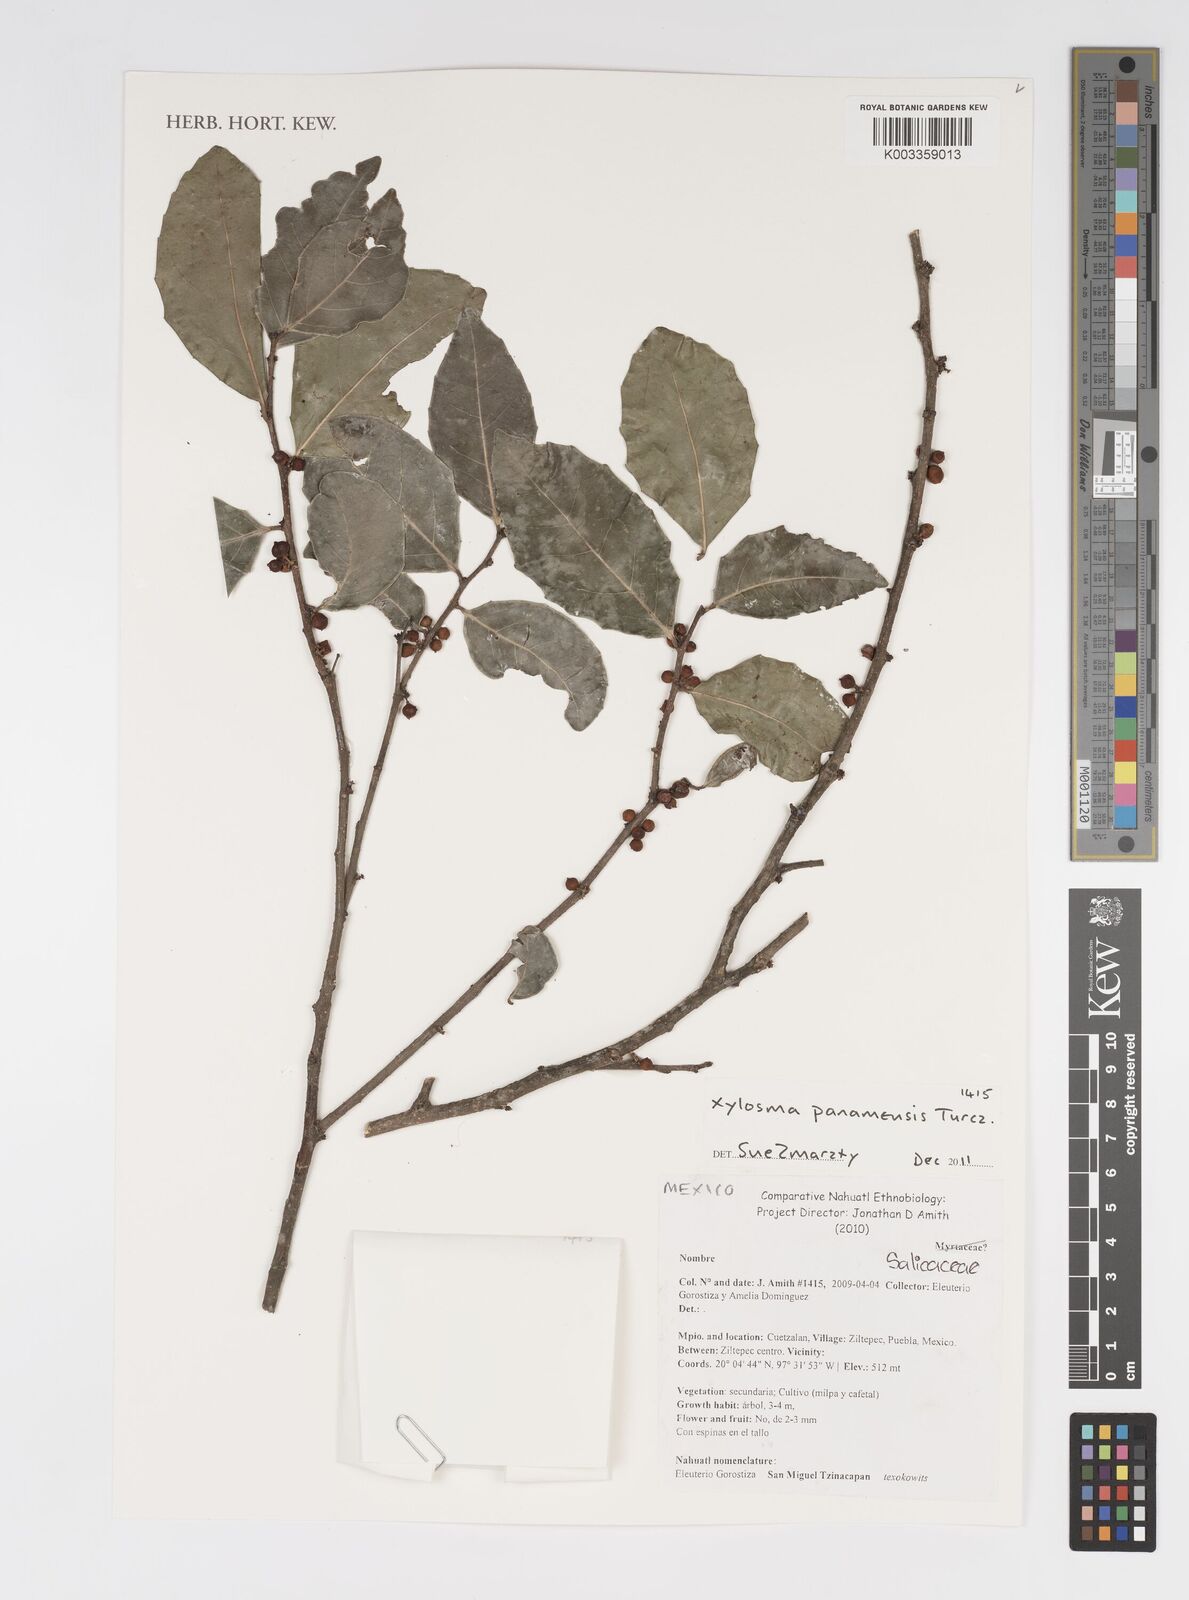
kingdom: Plantae
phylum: Tracheophyta
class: Magnoliopsida
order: Malpighiales
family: Salicaceae
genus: Xylosma
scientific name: Xylosma panamensis
